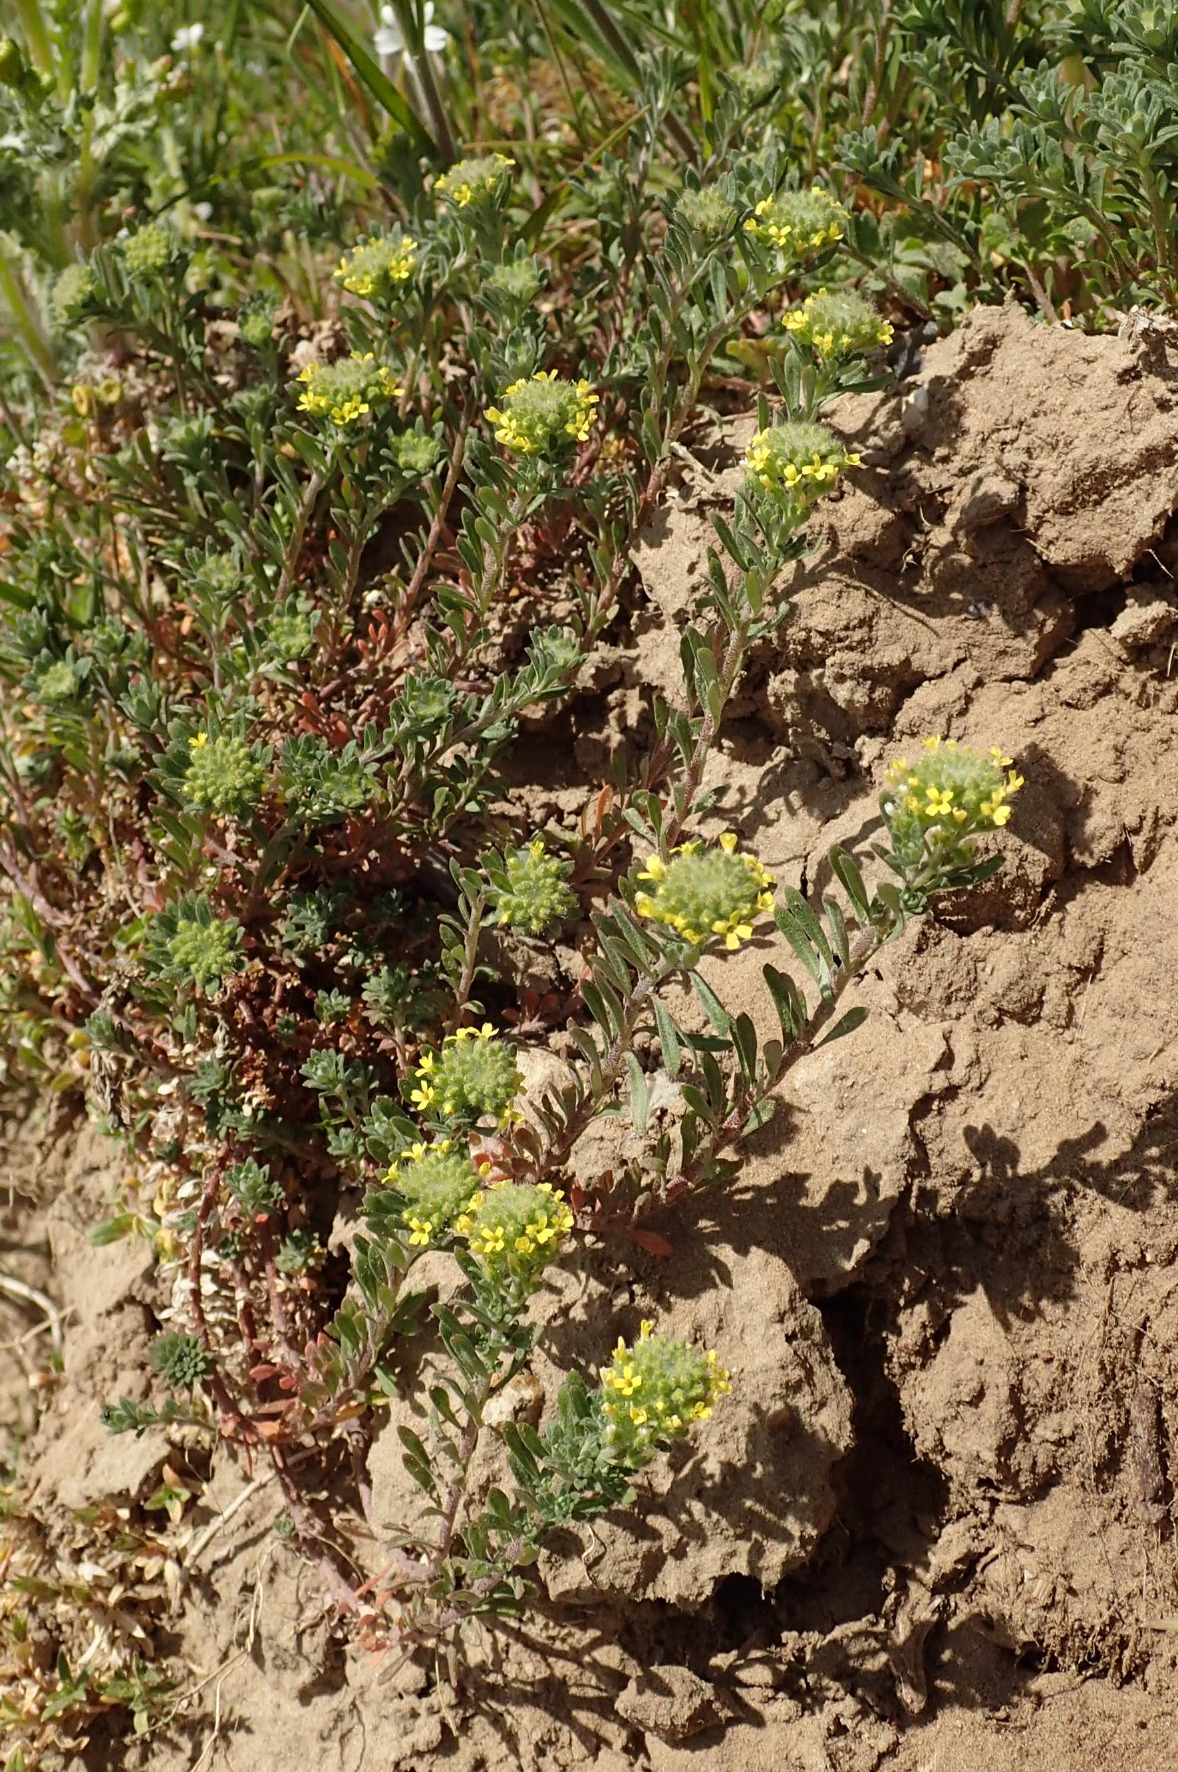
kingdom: Plantae
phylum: Tracheophyta
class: Magnoliopsida
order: Brassicales
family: Brassicaceae
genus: Alyssum
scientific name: Alyssum alyssoides
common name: Grådodder
